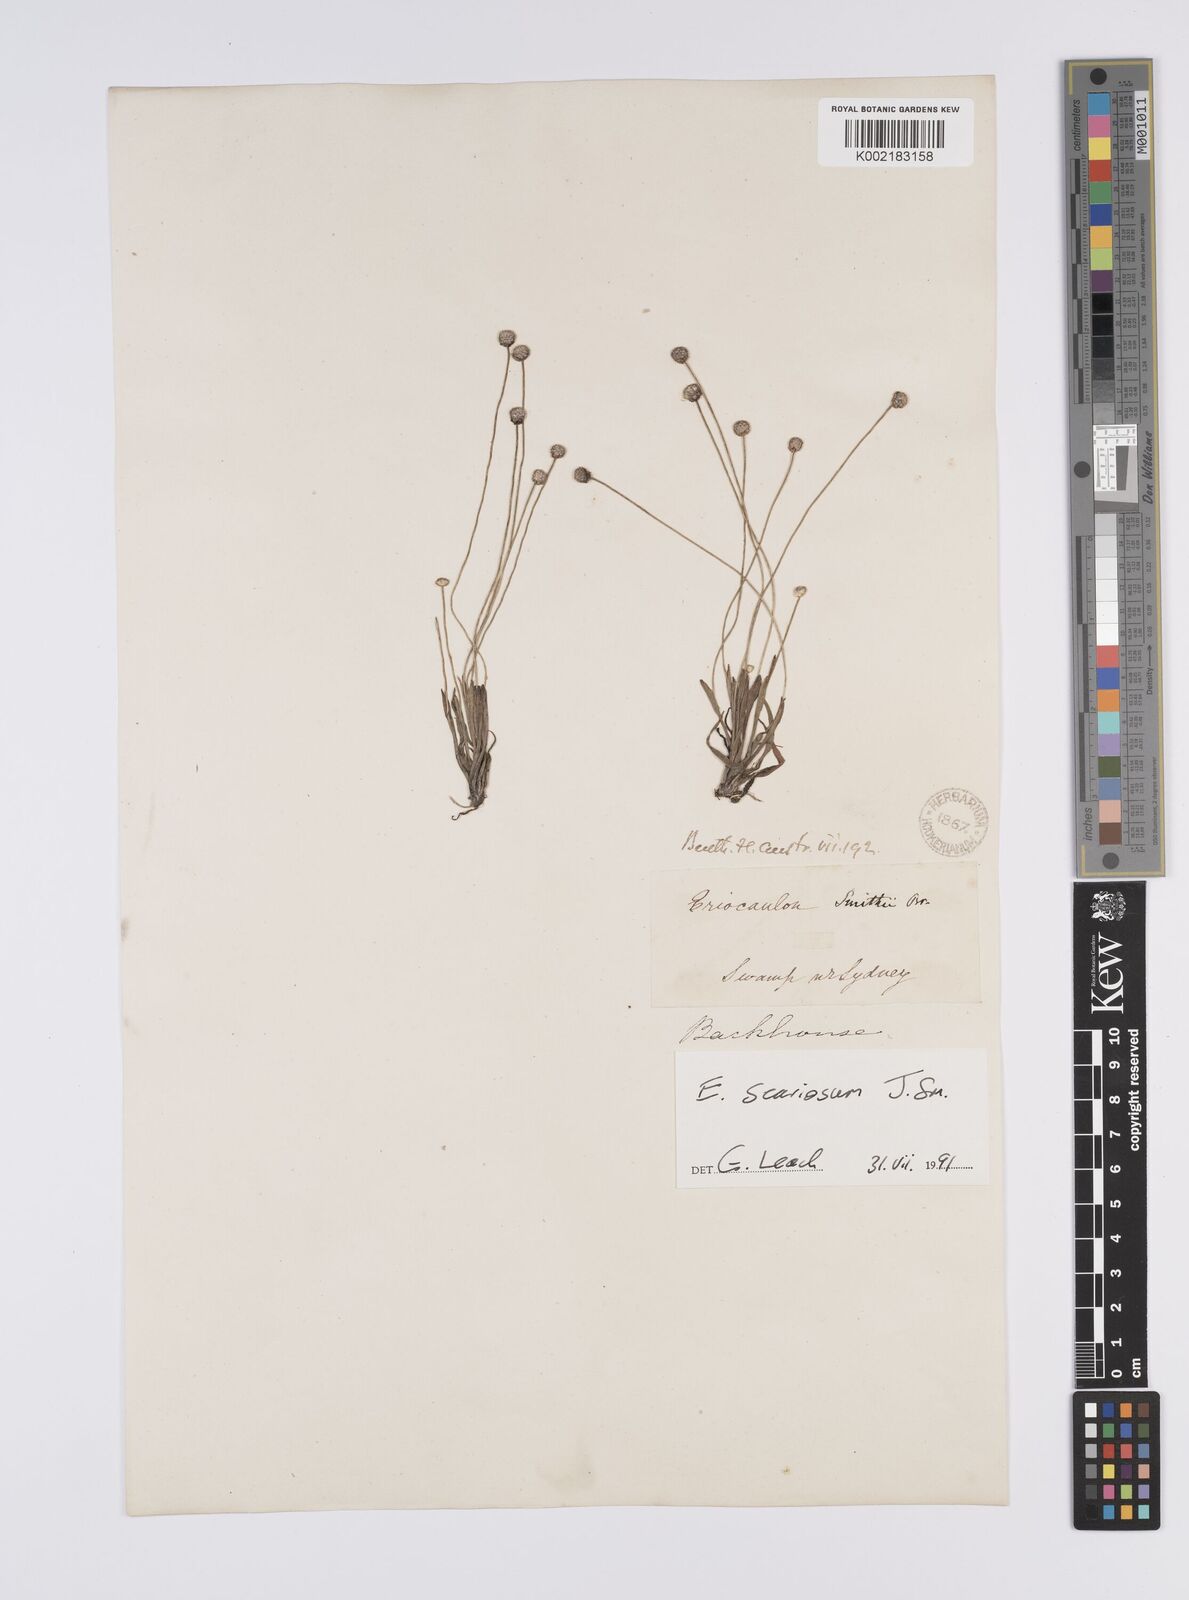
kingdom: Plantae
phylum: Tracheophyta
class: Liliopsida
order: Poales
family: Eriocaulaceae
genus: Eriocaulon
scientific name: Eriocaulon scariosum
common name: Rough pipewort
